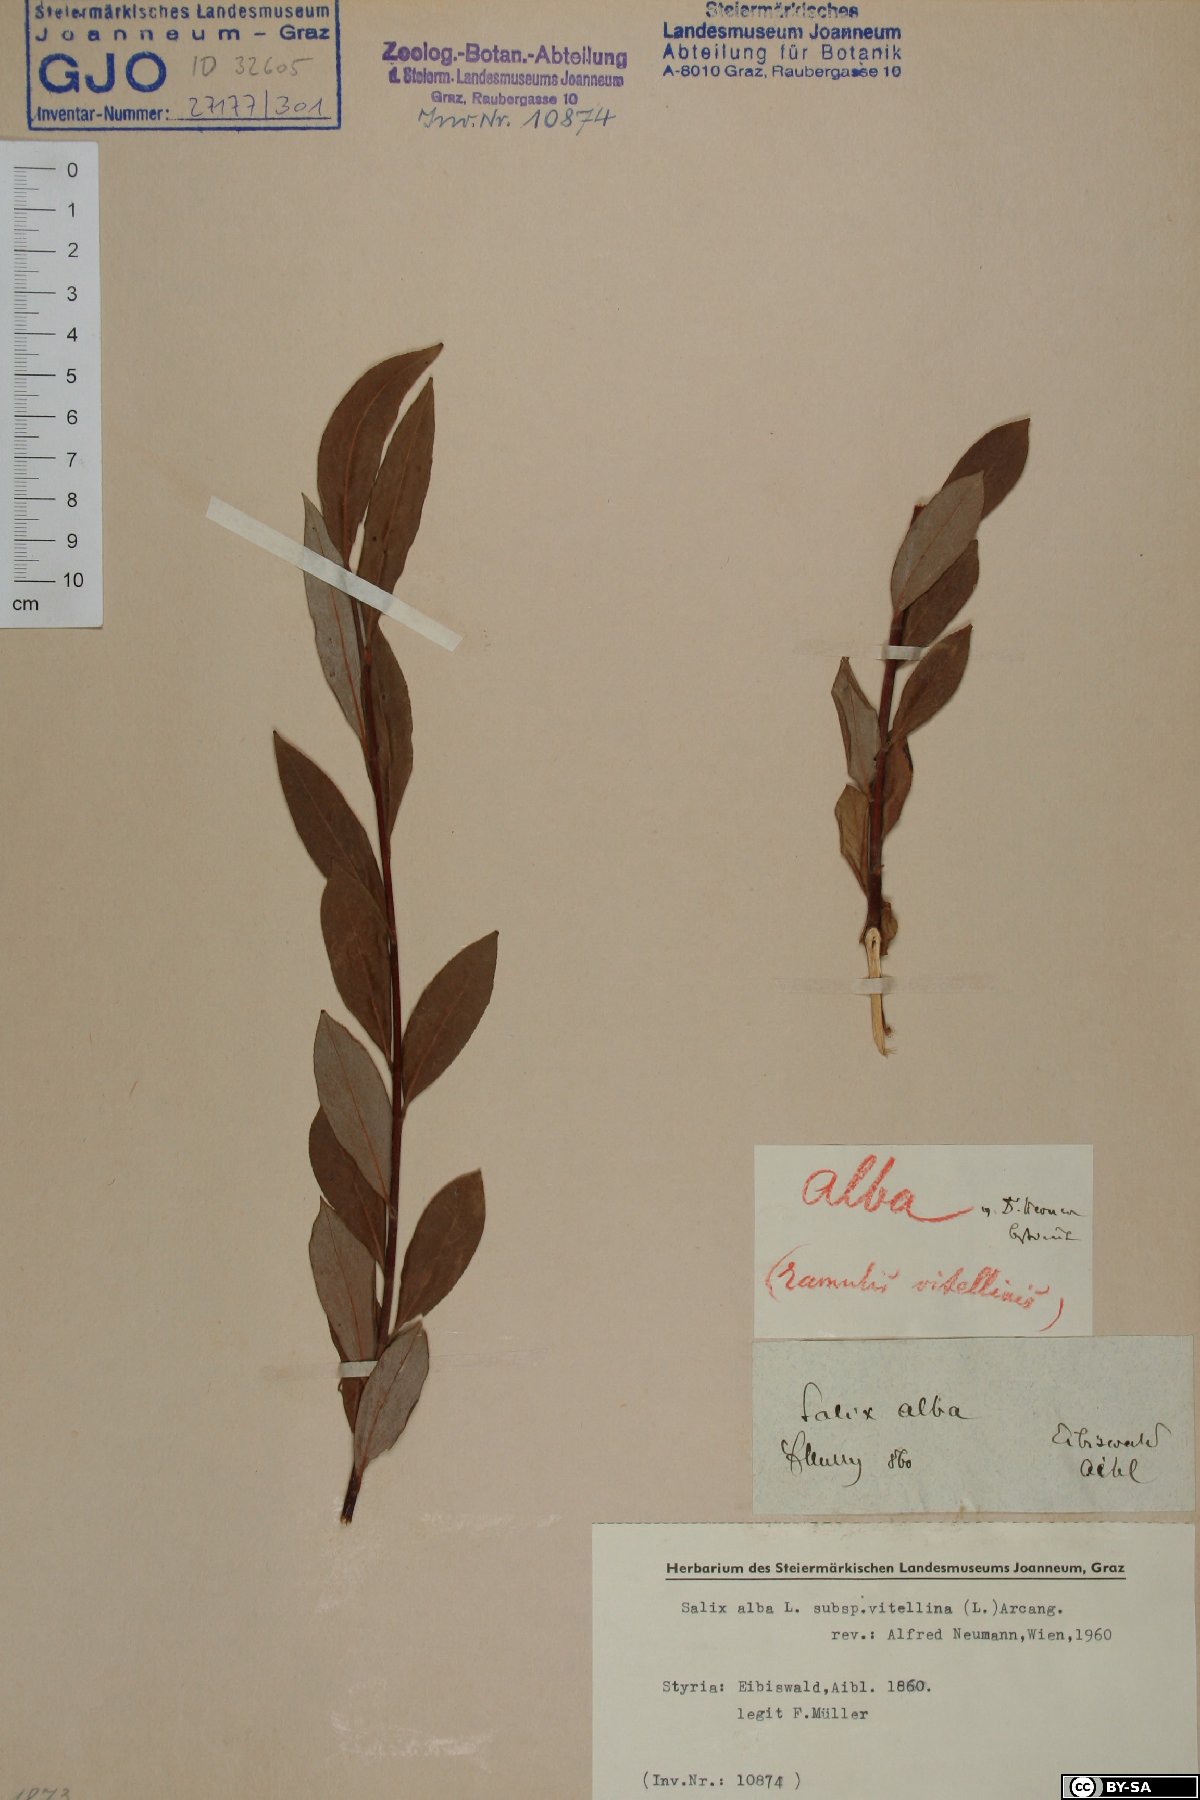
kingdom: Plantae
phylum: Tracheophyta
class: Magnoliopsida
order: Malpighiales
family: Salicaceae
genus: Salix
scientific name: Salix alba
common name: White willow
